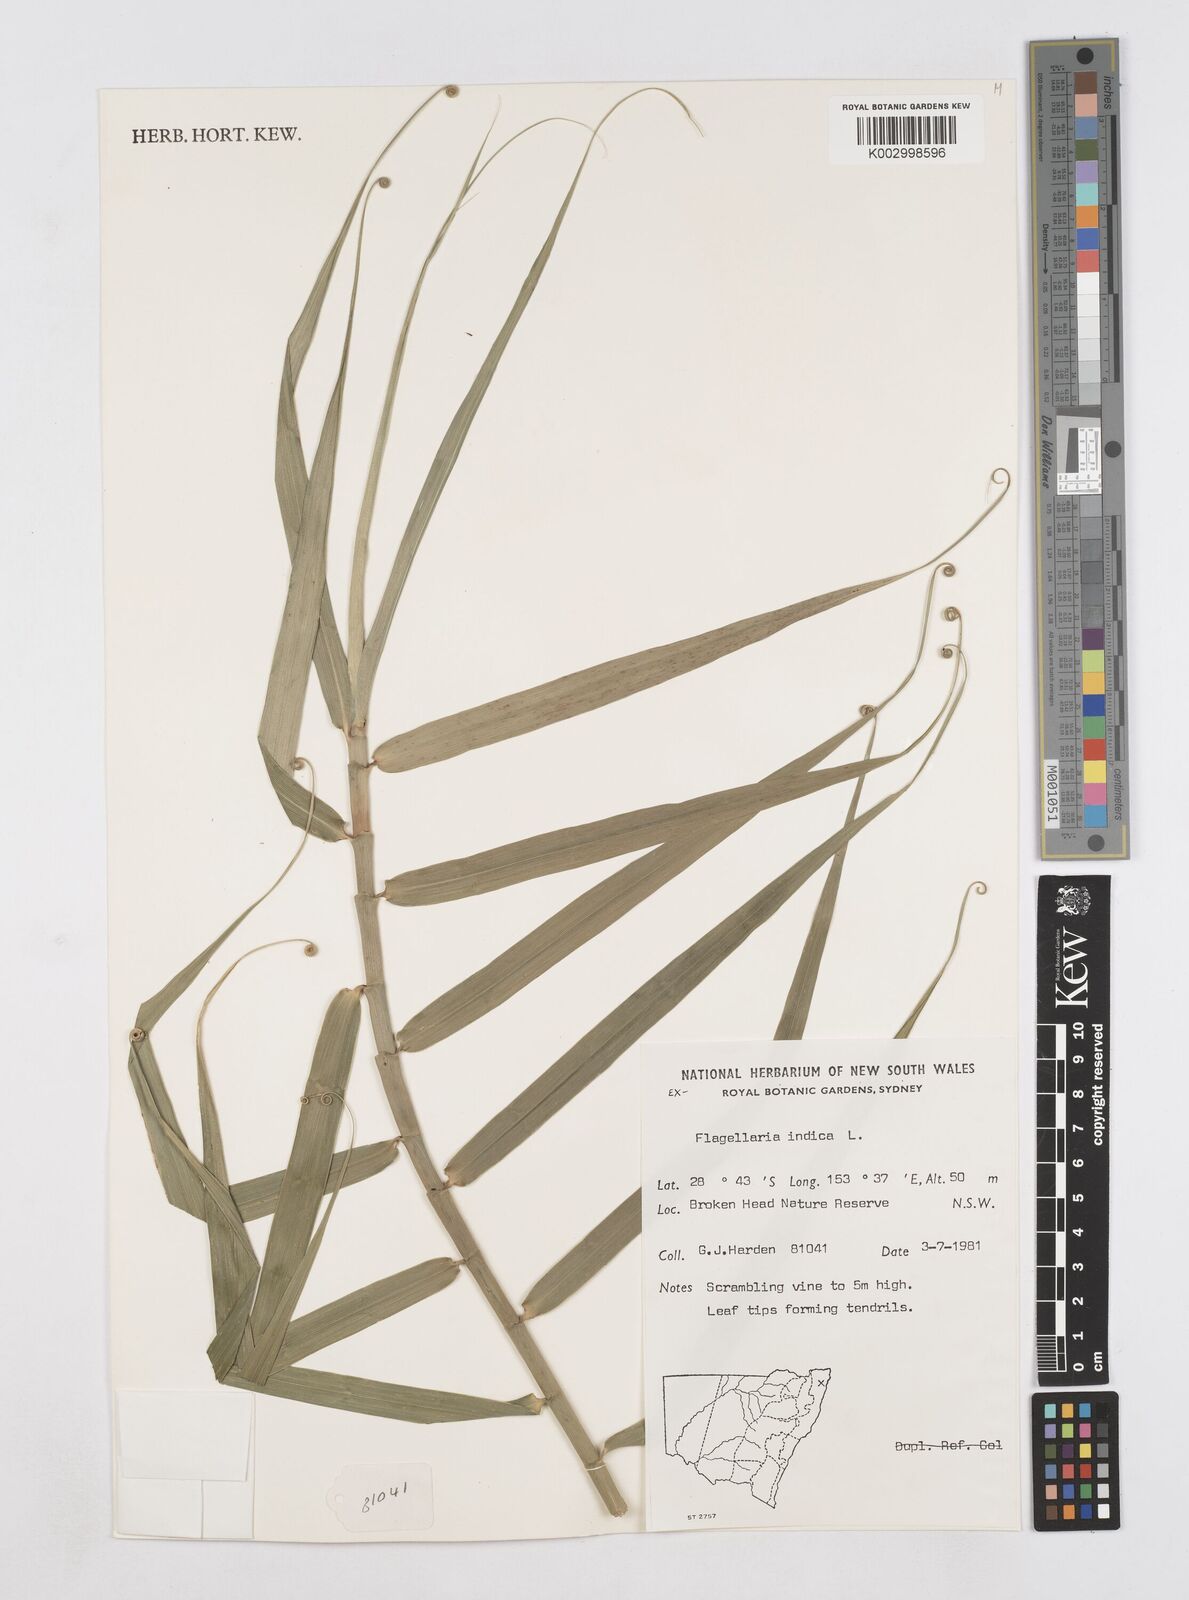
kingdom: Plantae
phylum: Tracheophyta
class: Liliopsida
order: Poales
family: Flagellariaceae
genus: Flagellaria
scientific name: Flagellaria indica
